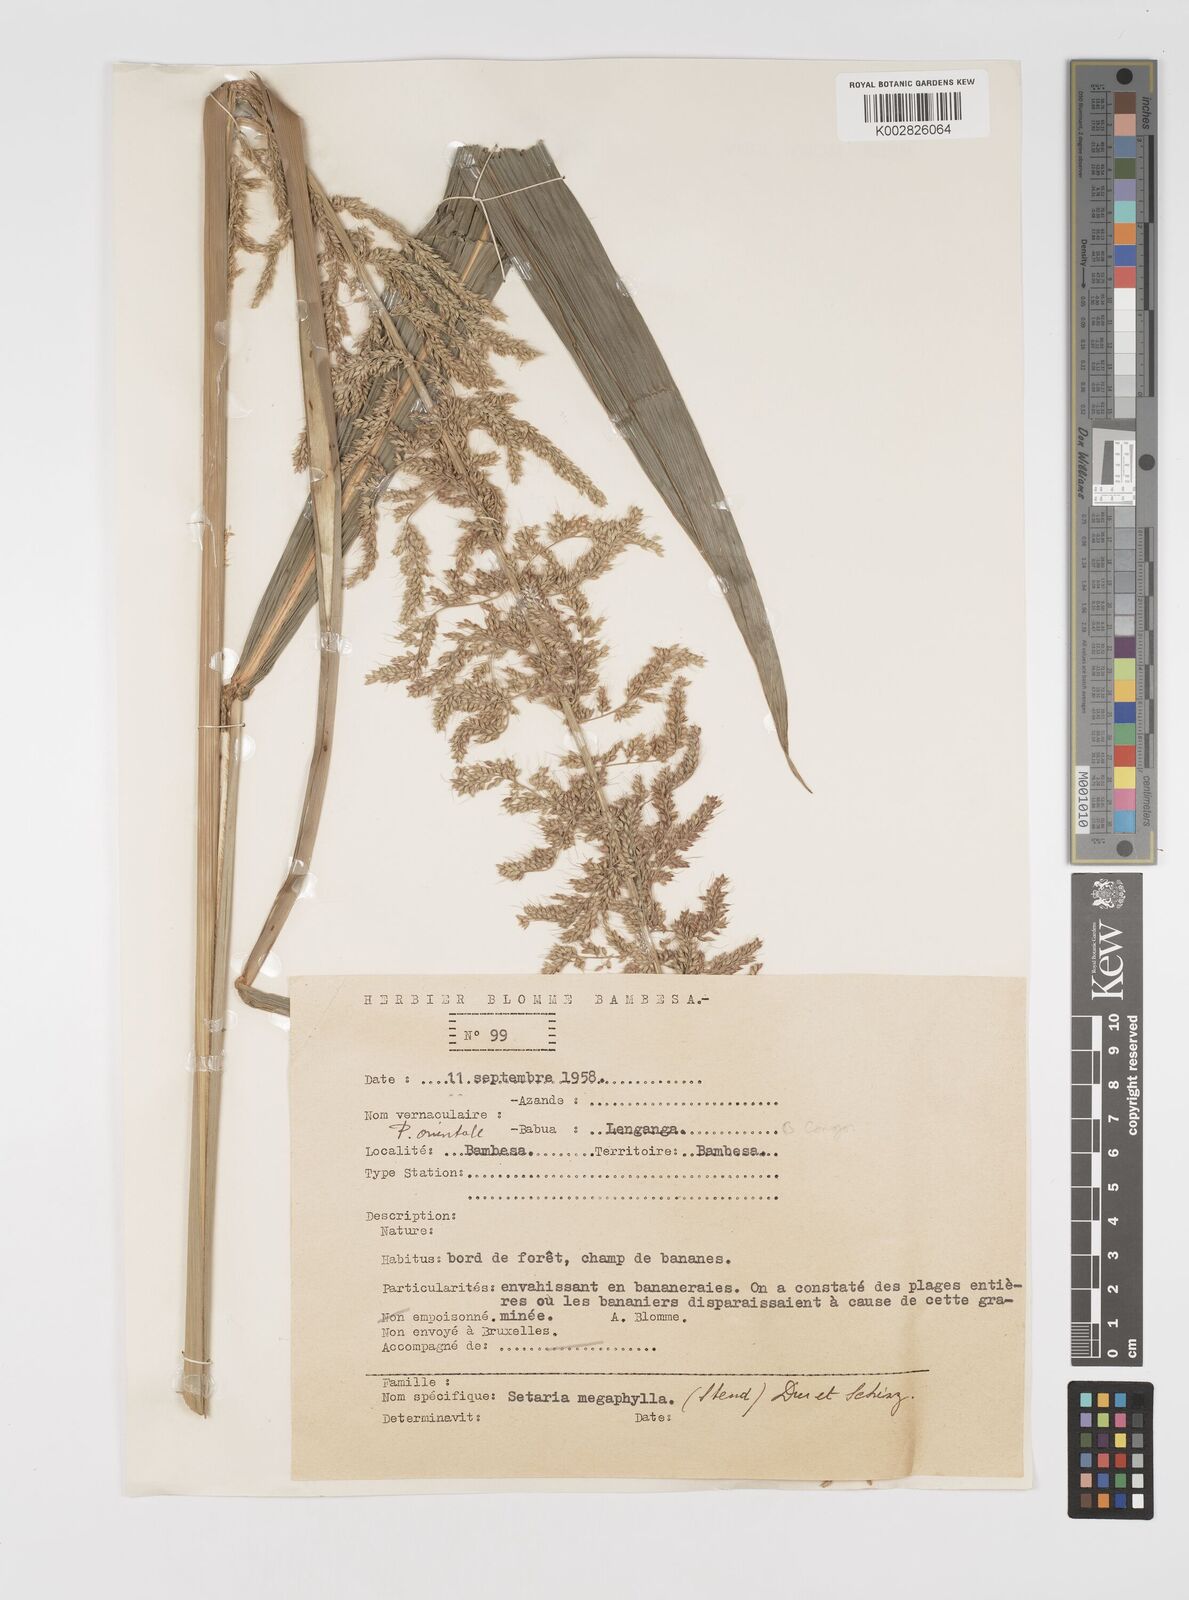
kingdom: Plantae
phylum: Tracheophyta
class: Liliopsida
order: Poales
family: Poaceae
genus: Setaria
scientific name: Setaria megaphylla
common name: Bigleaf bristlegrass
